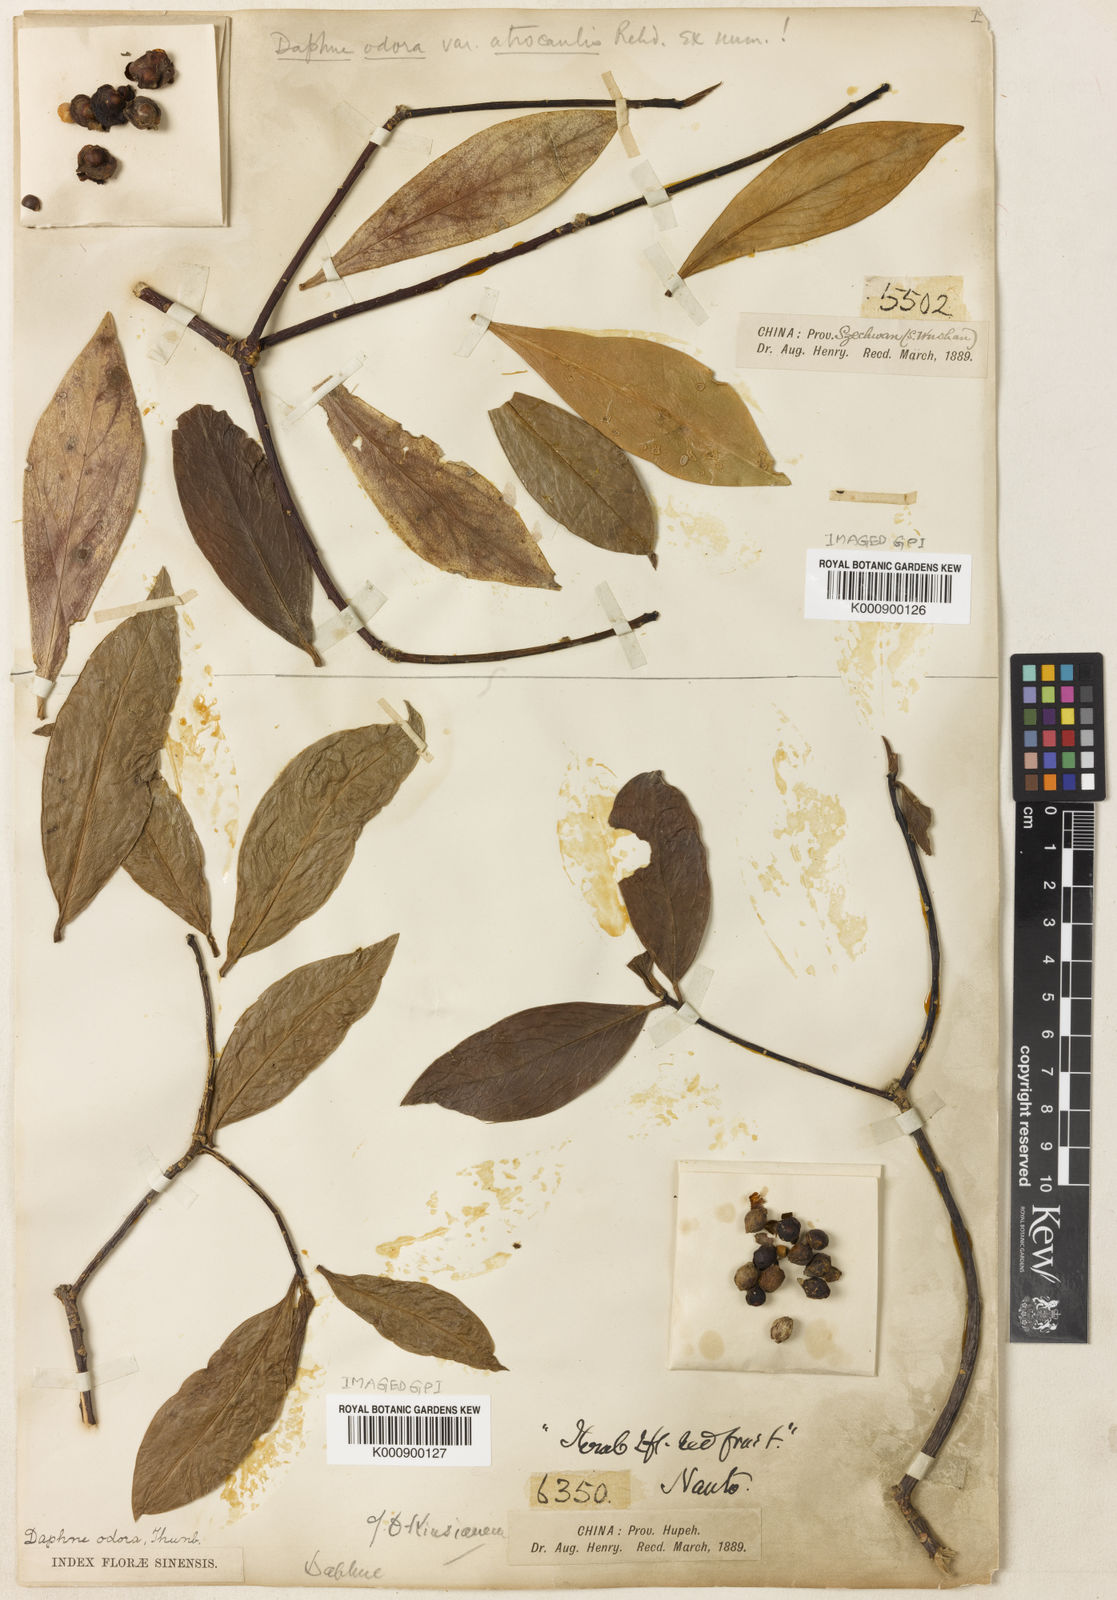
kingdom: Plantae
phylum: Tracheophyta
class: Magnoliopsida
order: Malvales
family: Thymelaeaceae
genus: Daphne
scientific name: Daphne
